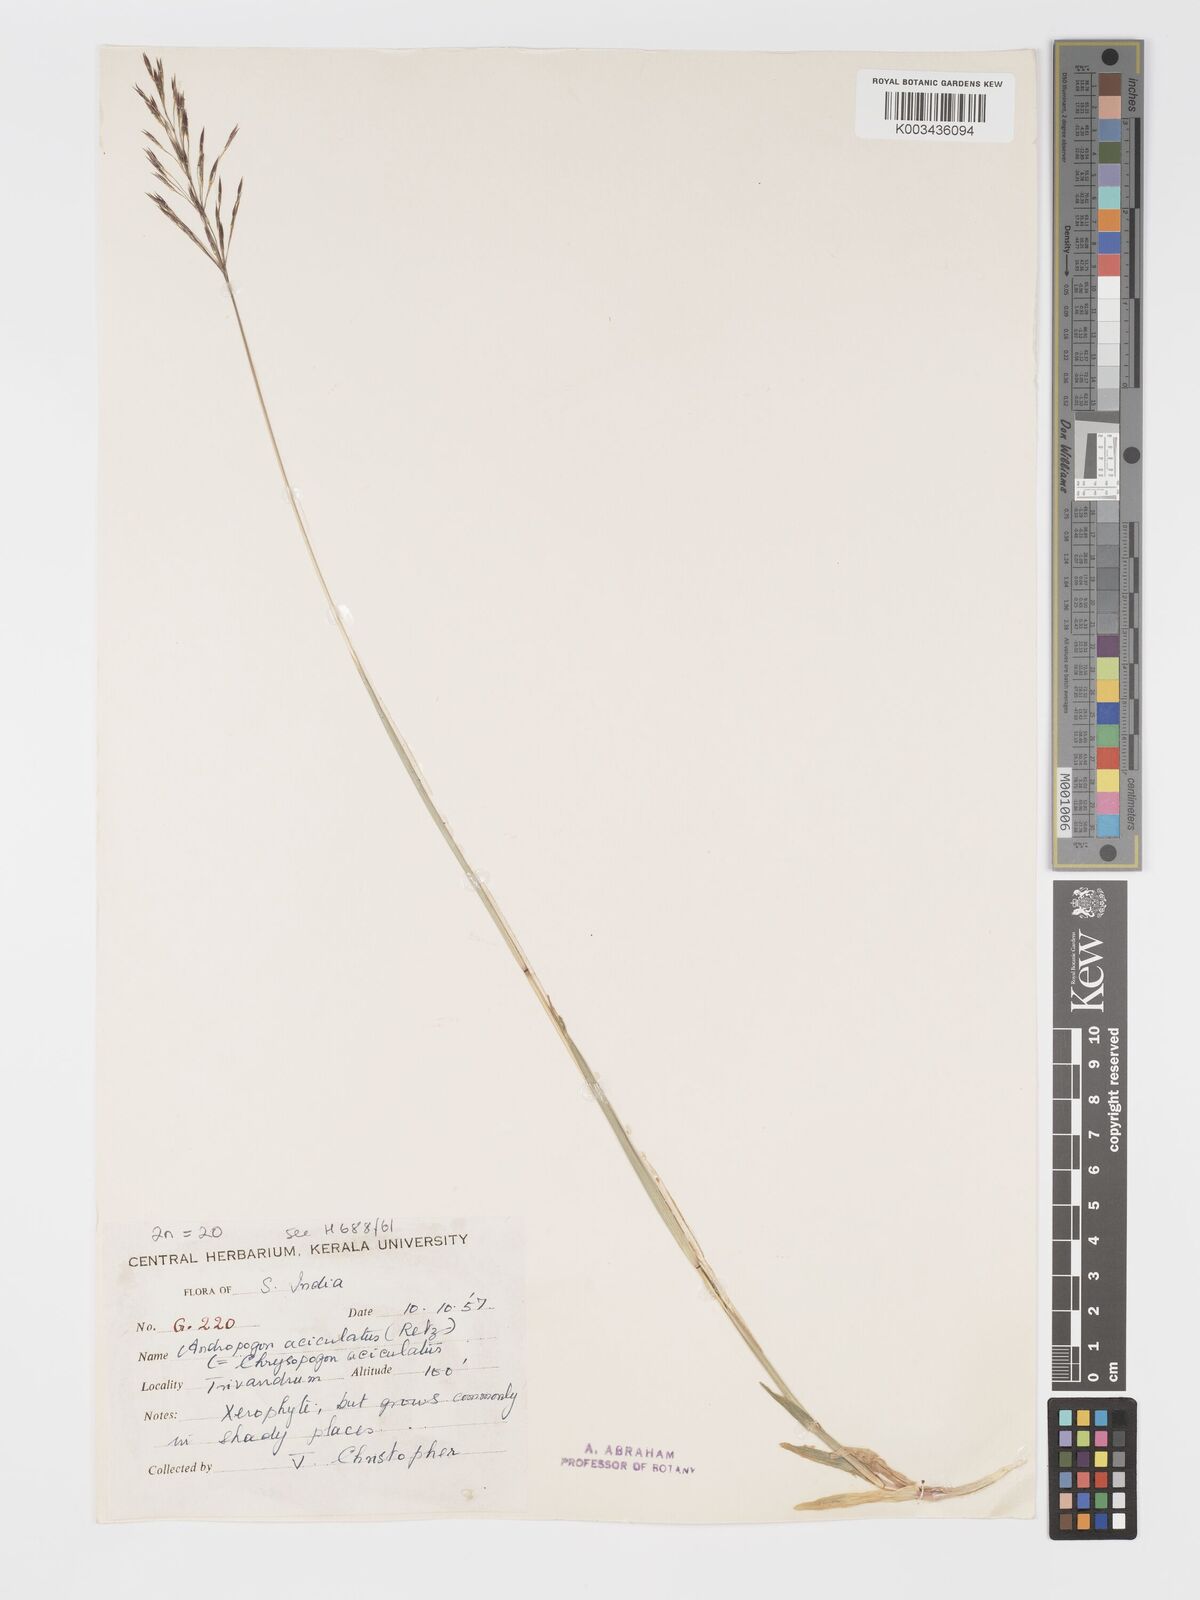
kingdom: Plantae
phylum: Tracheophyta
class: Liliopsida
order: Poales
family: Poaceae
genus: Chrysopogon
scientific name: Chrysopogon aciculatus
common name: Pilipiliula
